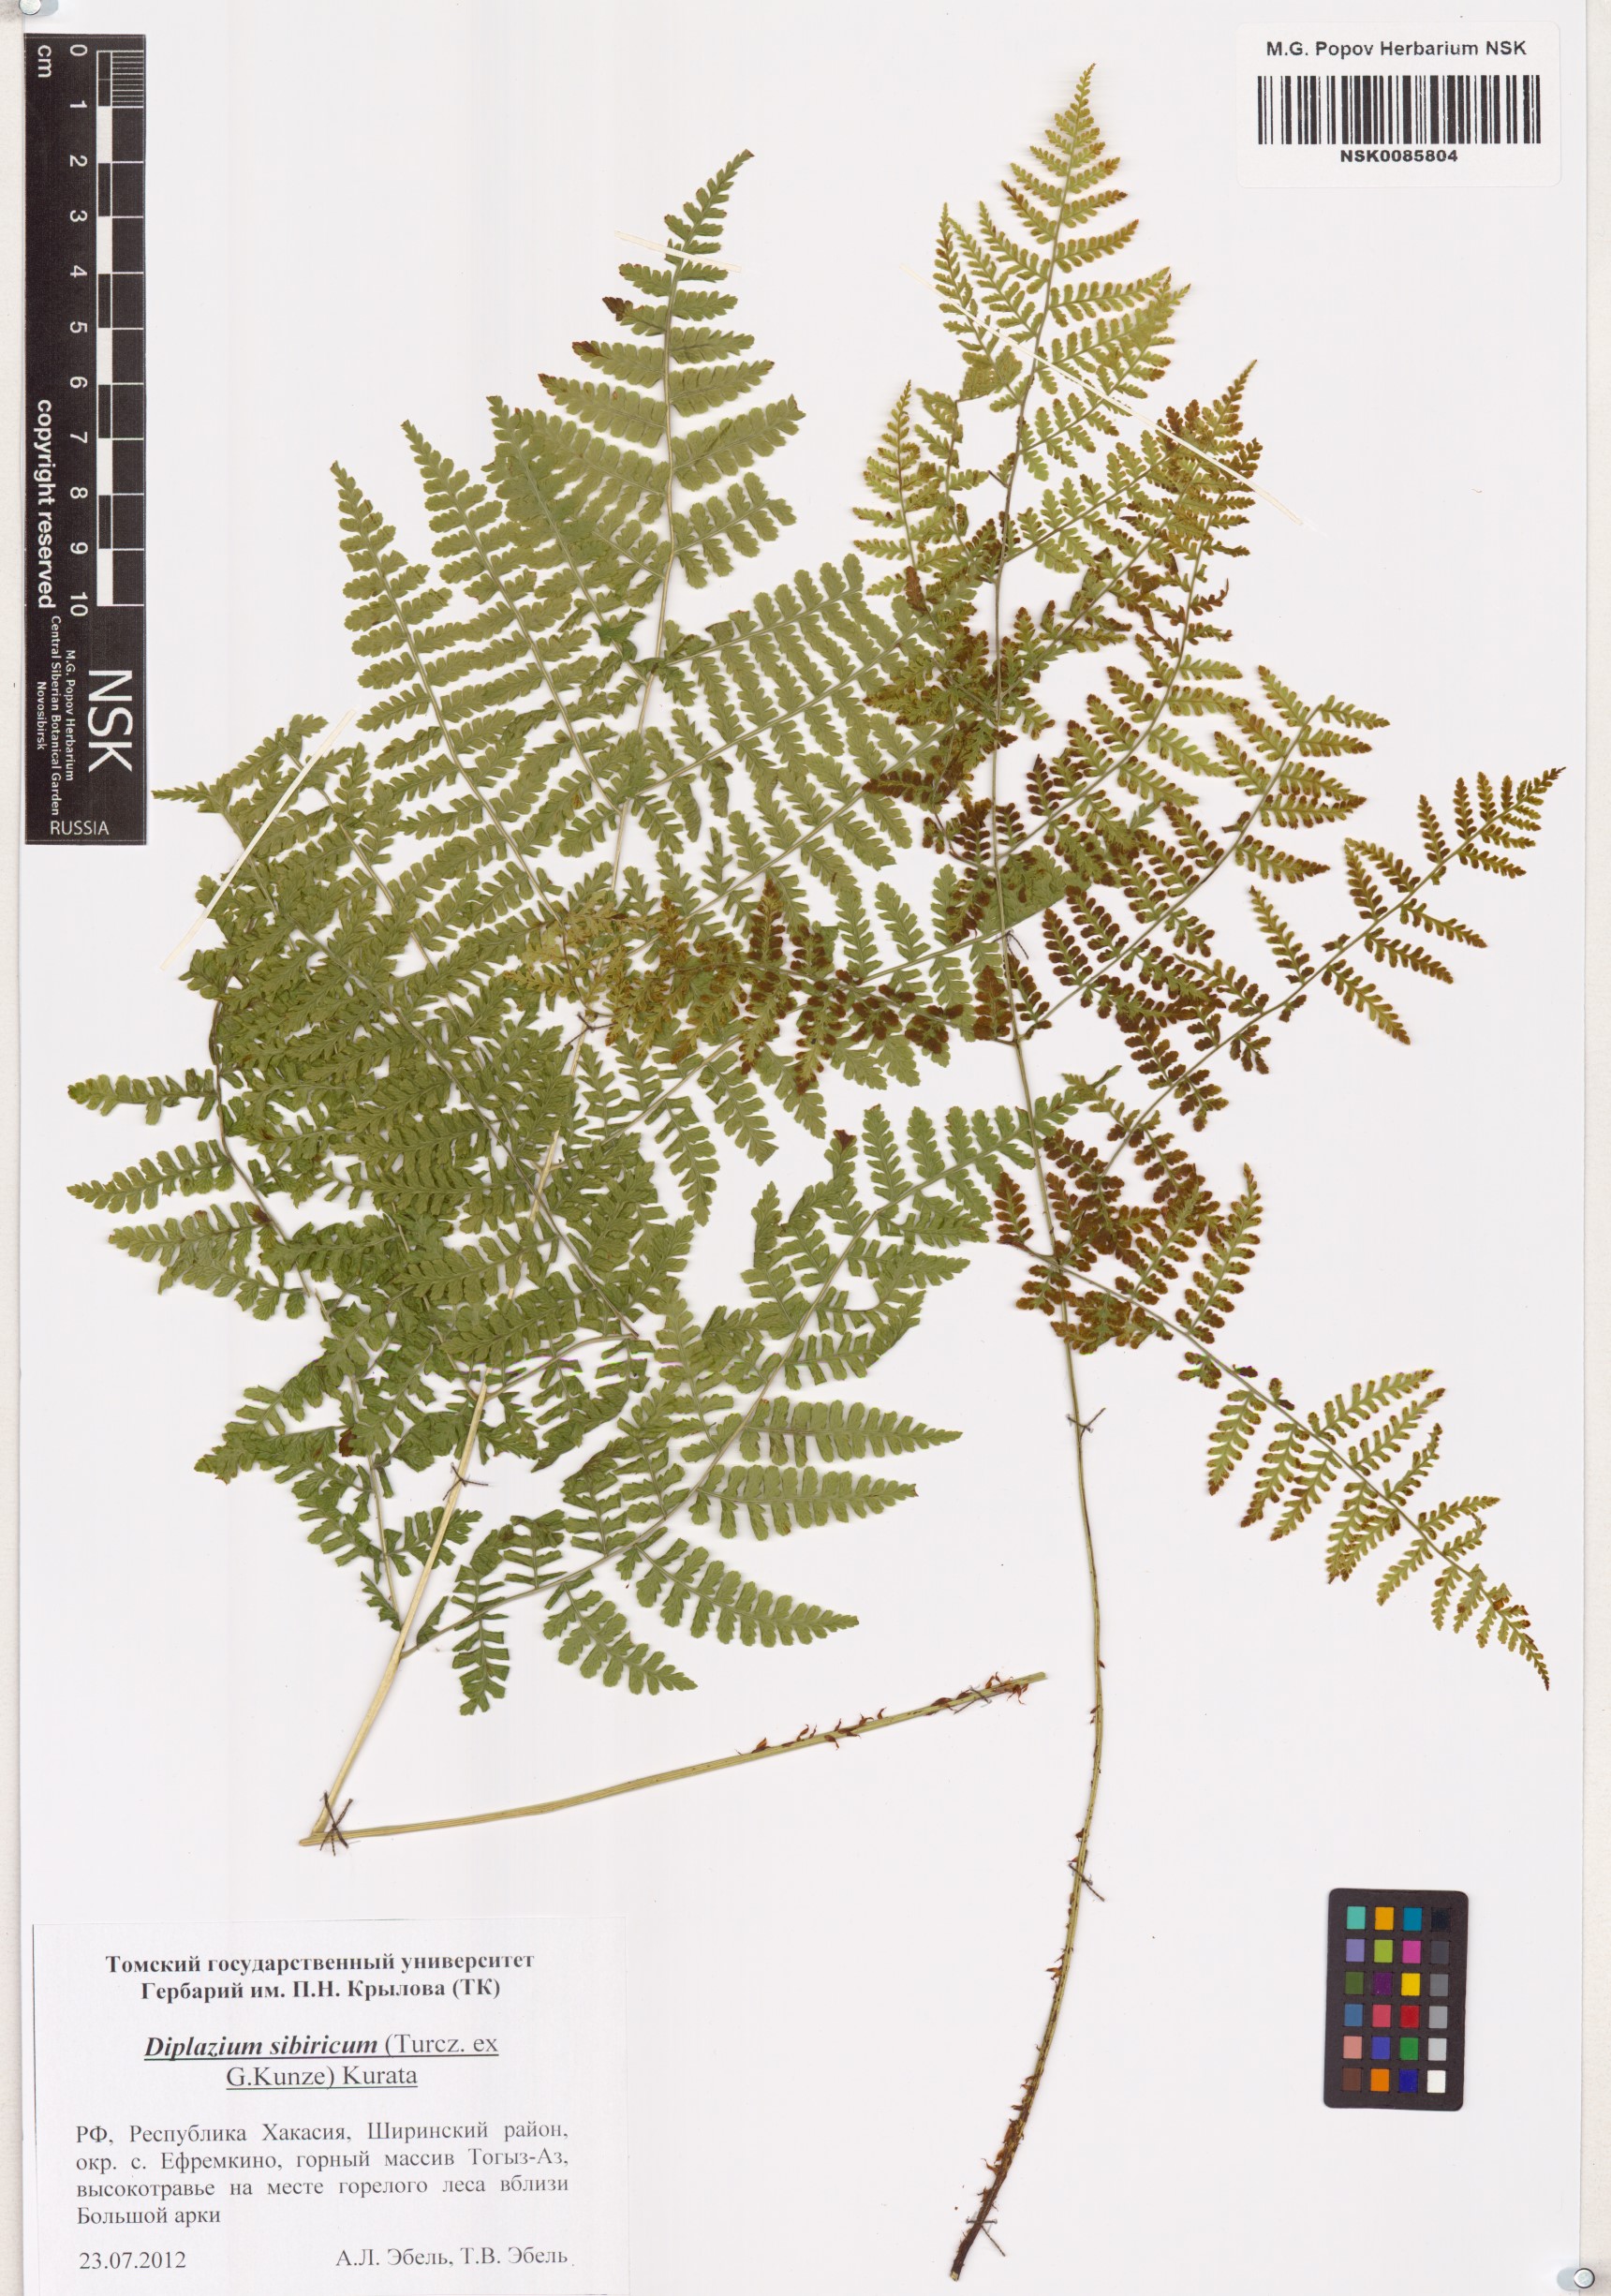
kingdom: Plantae
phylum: Tracheophyta
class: Polypodiopsida
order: Polypodiales
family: Athyriaceae
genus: Diplazium
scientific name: Diplazium sibiricum
